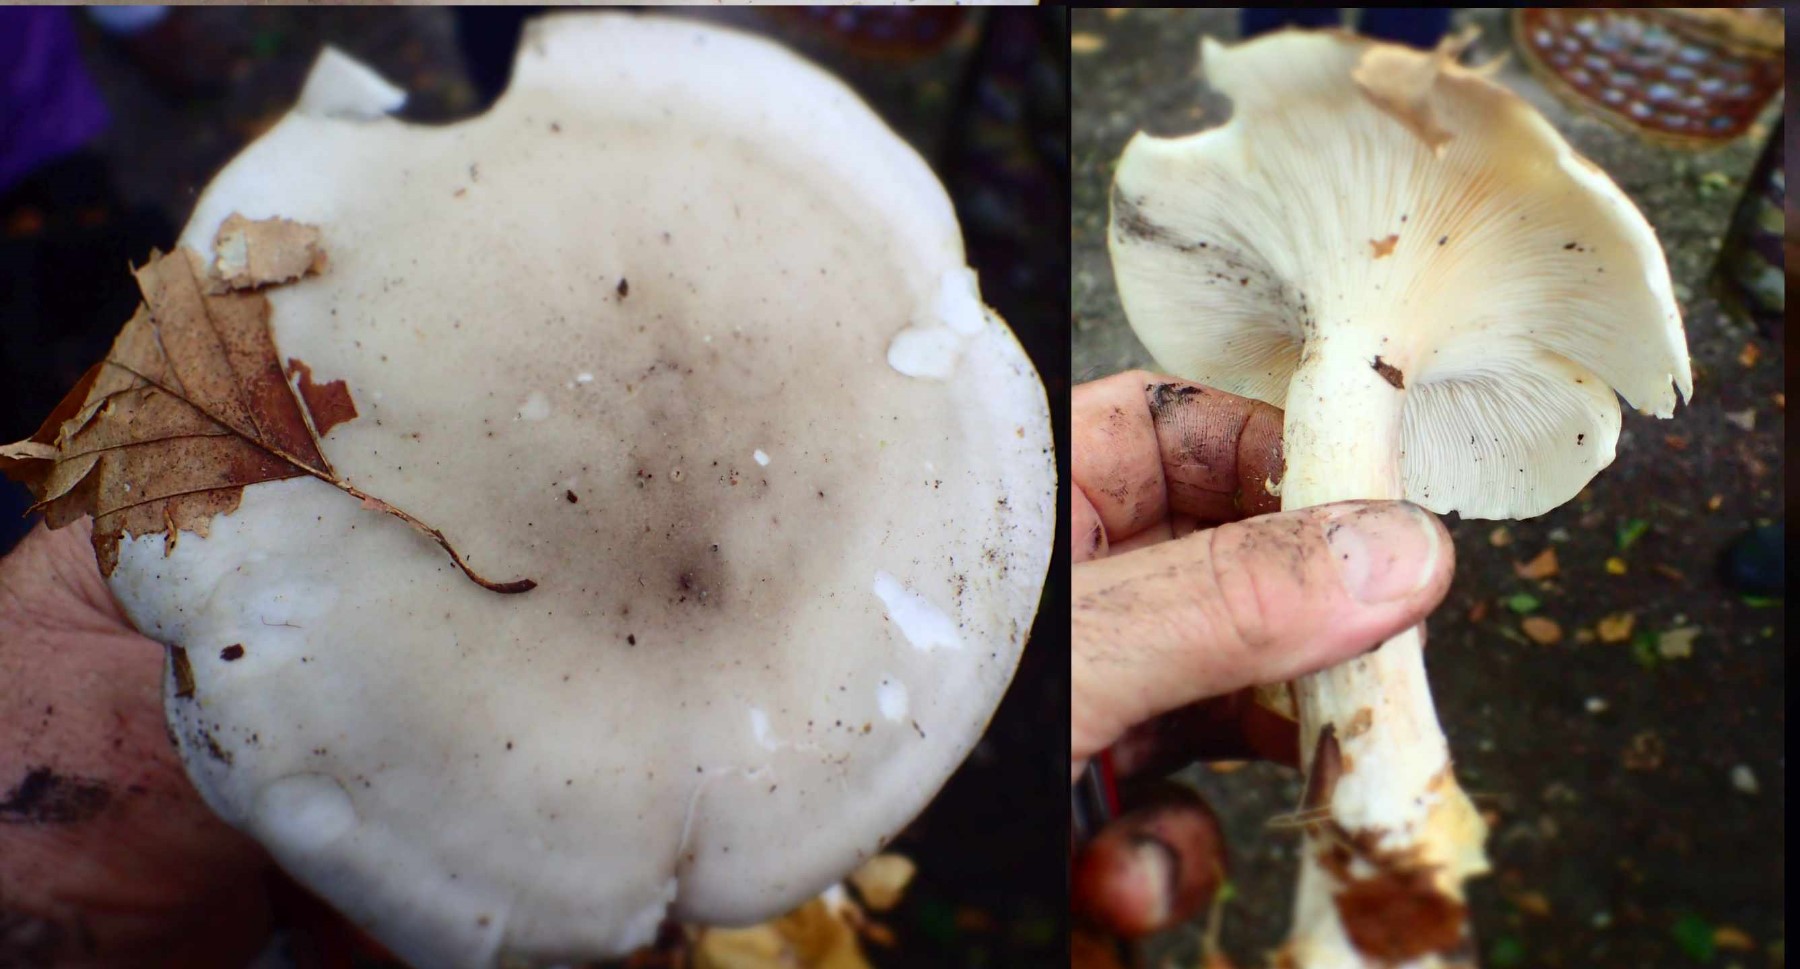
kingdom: Fungi
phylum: Basidiomycota
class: Agaricomycetes
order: Agaricales
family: Tricholomataceae
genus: Clitocybe
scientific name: Clitocybe nebularis
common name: tåge-tragthat
